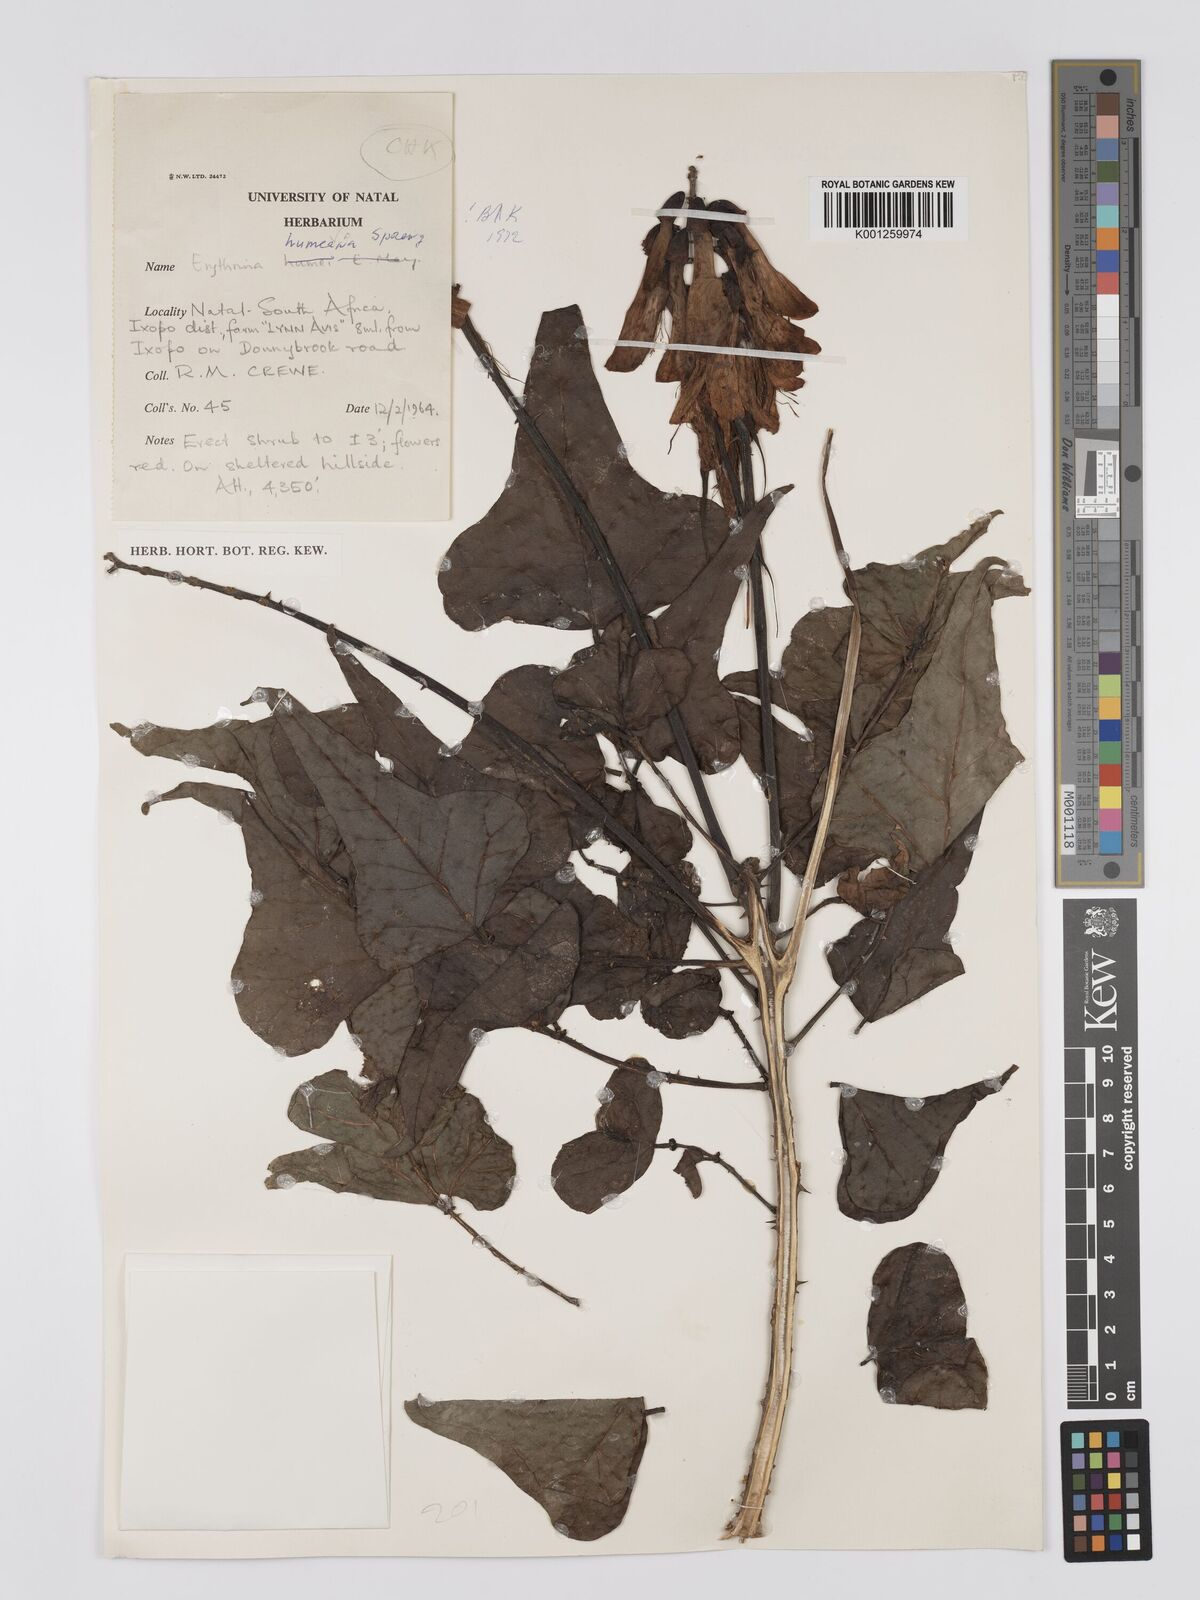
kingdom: Plantae
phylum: Tracheophyta
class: Magnoliopsida
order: Fabales
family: Fabaceae
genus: Erythrina
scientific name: Erythrina humeana
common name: Dwarf coral tree
